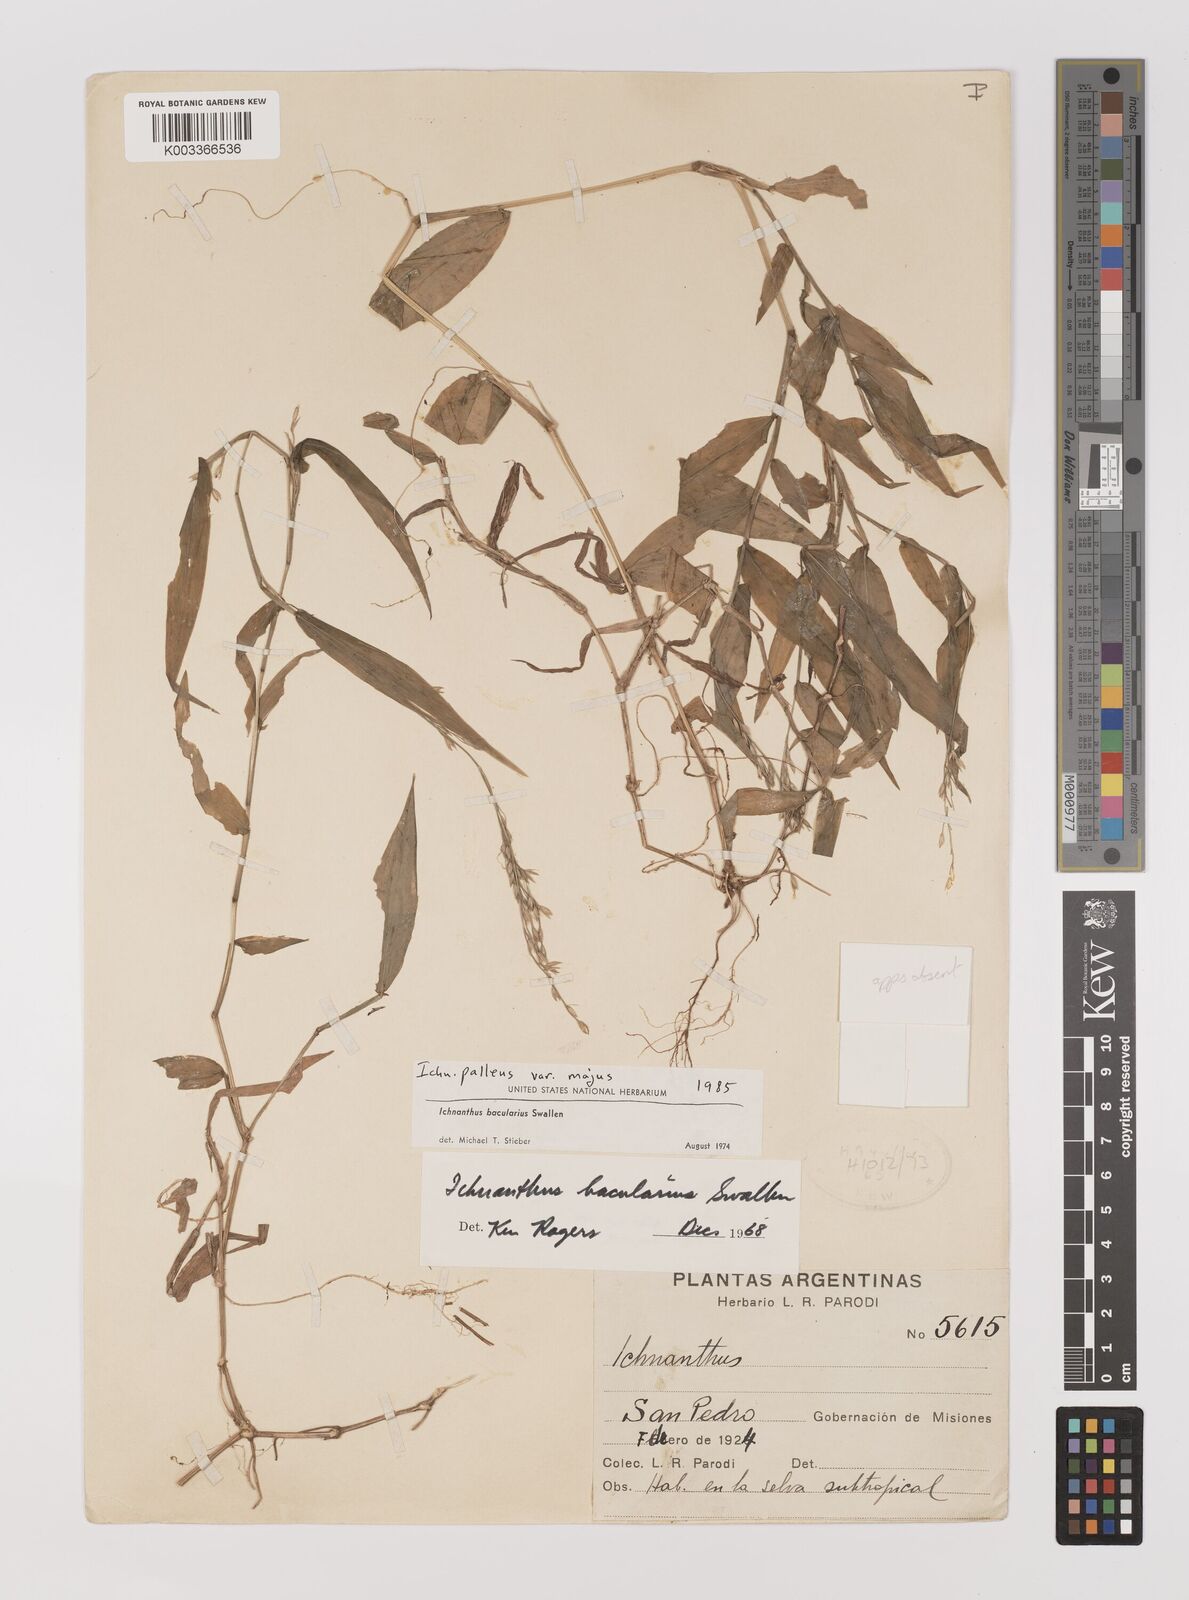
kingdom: Plantae
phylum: Tracheophyta
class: Liliopsida
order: Poales
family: Poaceae
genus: Ichnanthus
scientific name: Ichnanthus pallens
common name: Water grass
